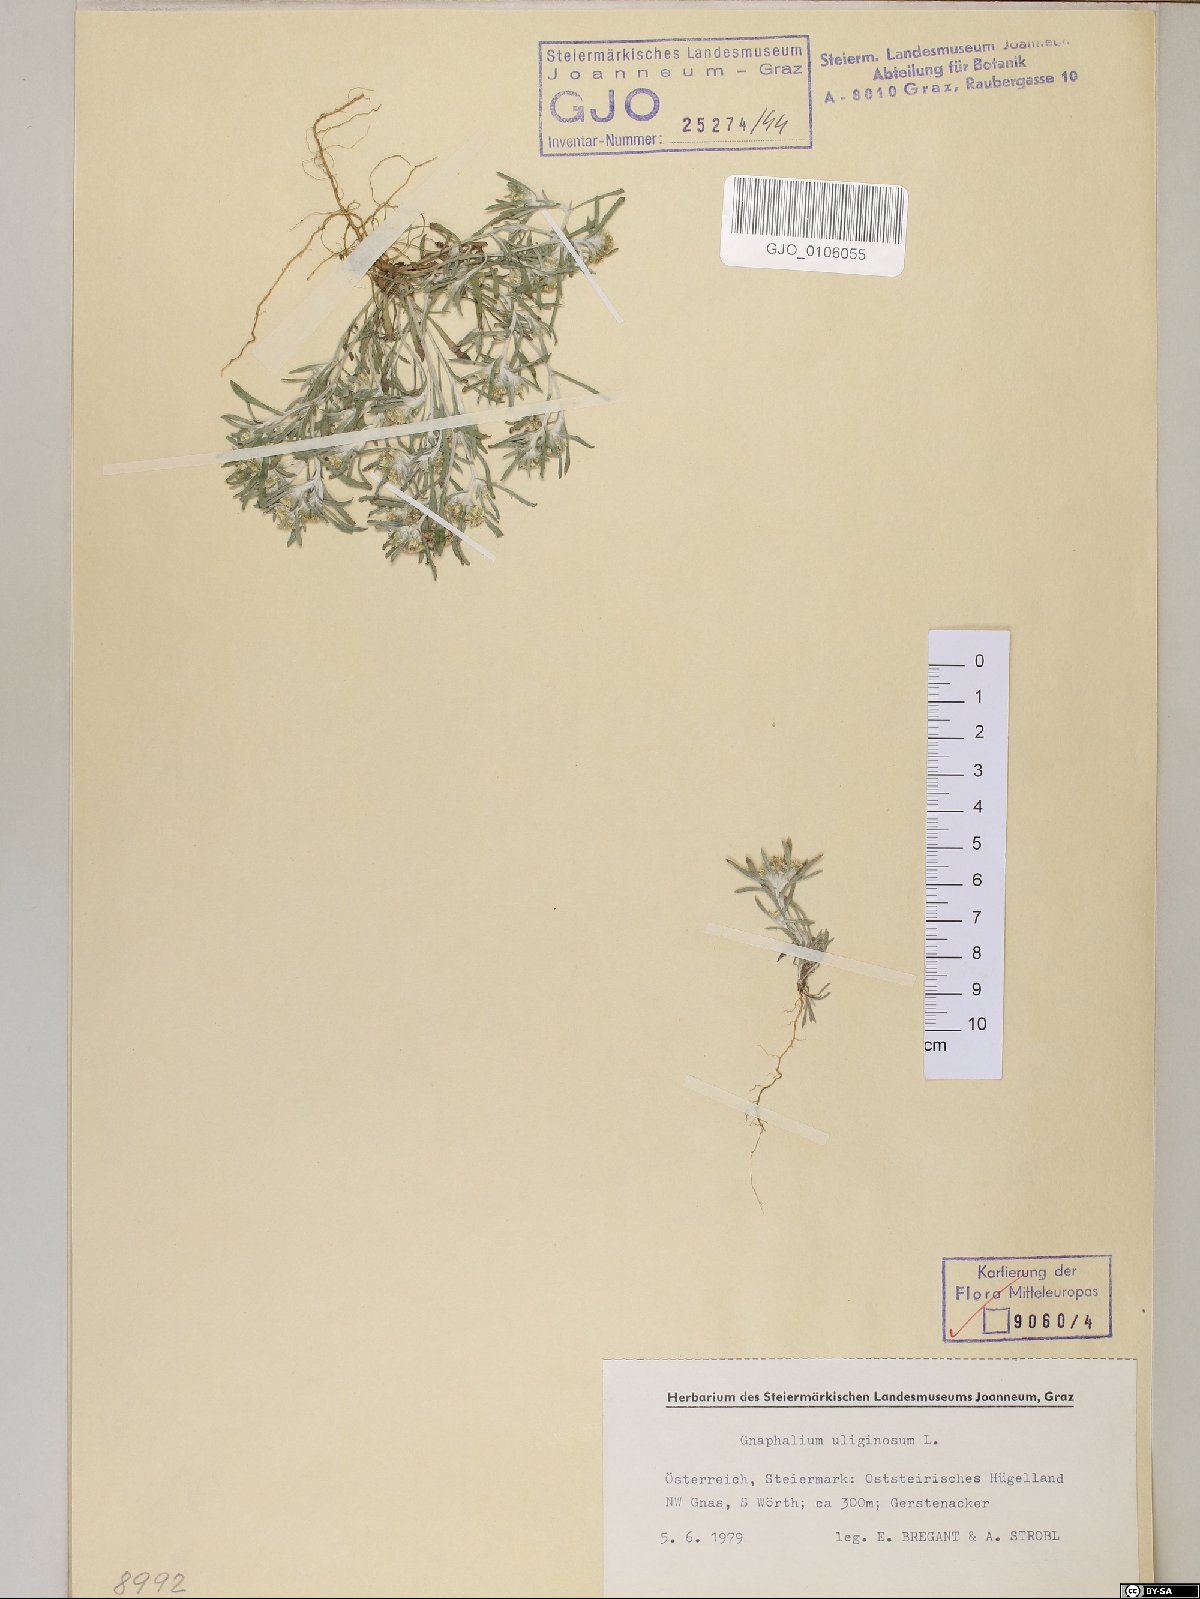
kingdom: Plantae
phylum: Tracheophyta
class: Magnoliopsida
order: Asterales
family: Asteraceae
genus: Gnaphalium
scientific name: Gnaphalium uliginosum
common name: Marsh cudweed
